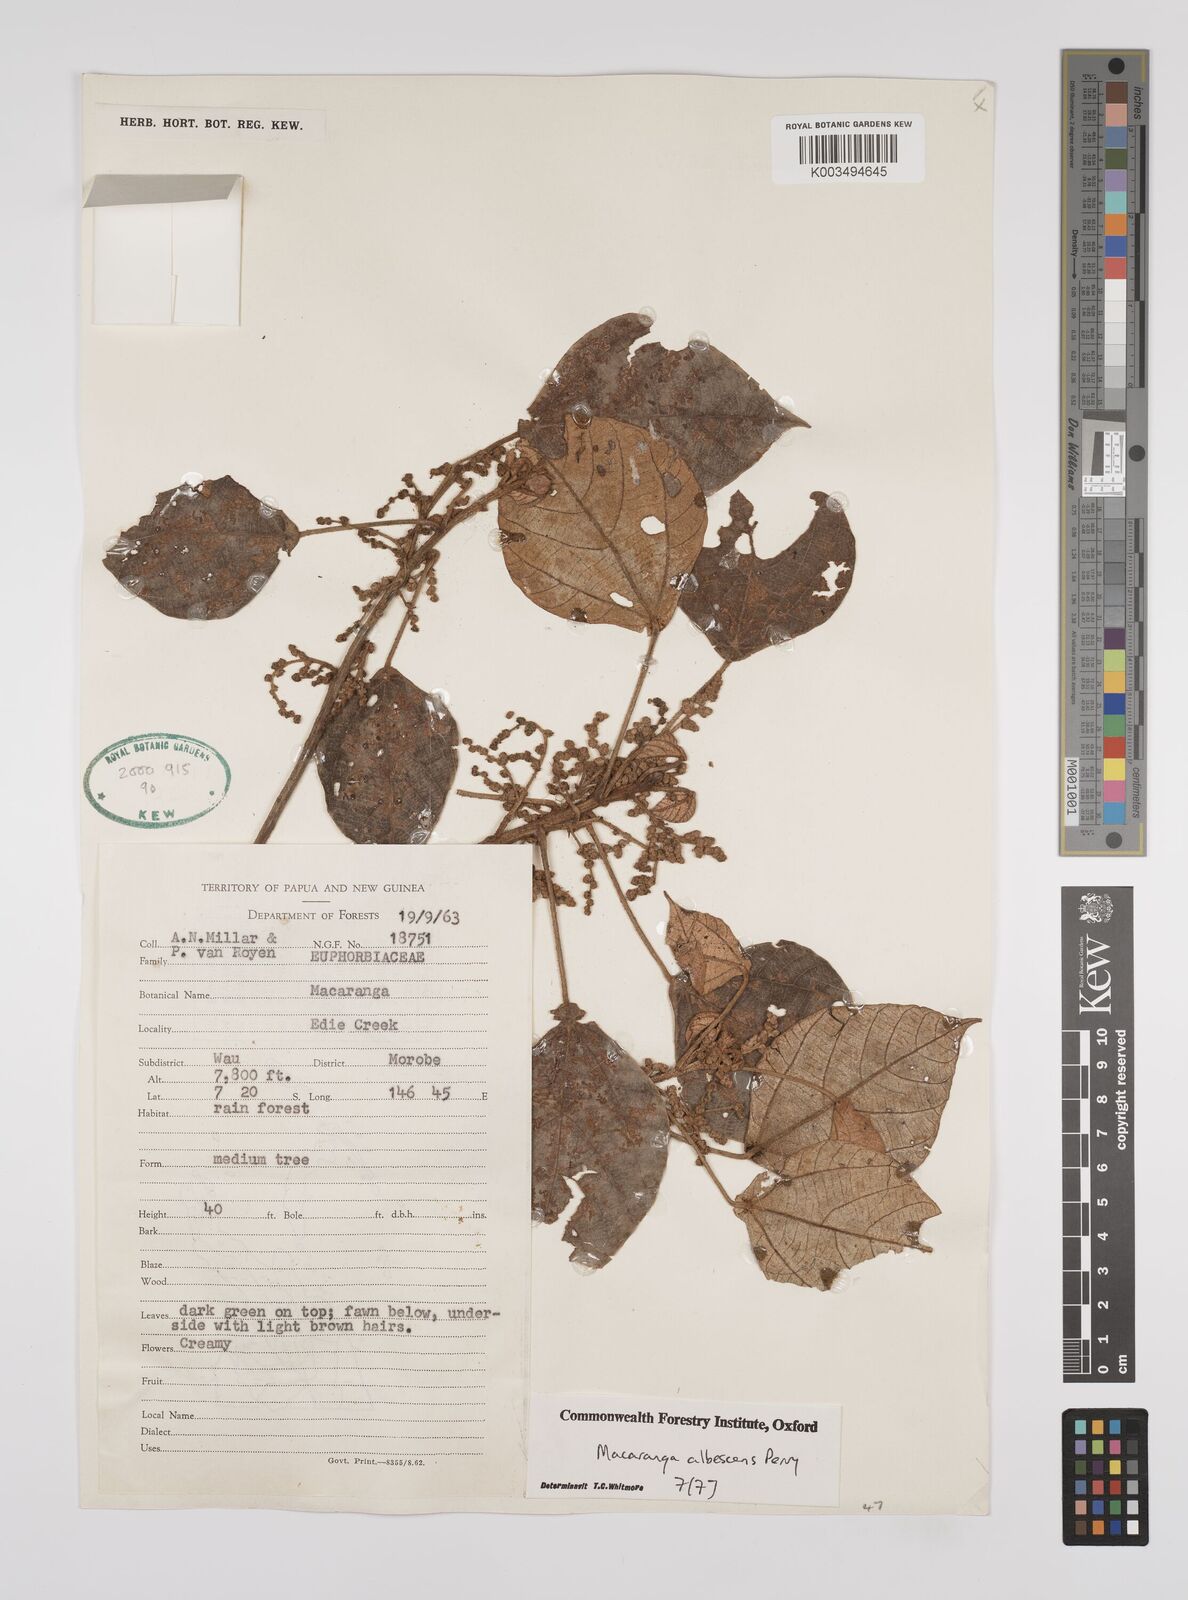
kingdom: Plantae
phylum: Tracheophyta
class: Magnoliopsida
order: Malpighiales
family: Euphorbiaceae
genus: Macaranga
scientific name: Macaranga albescens
